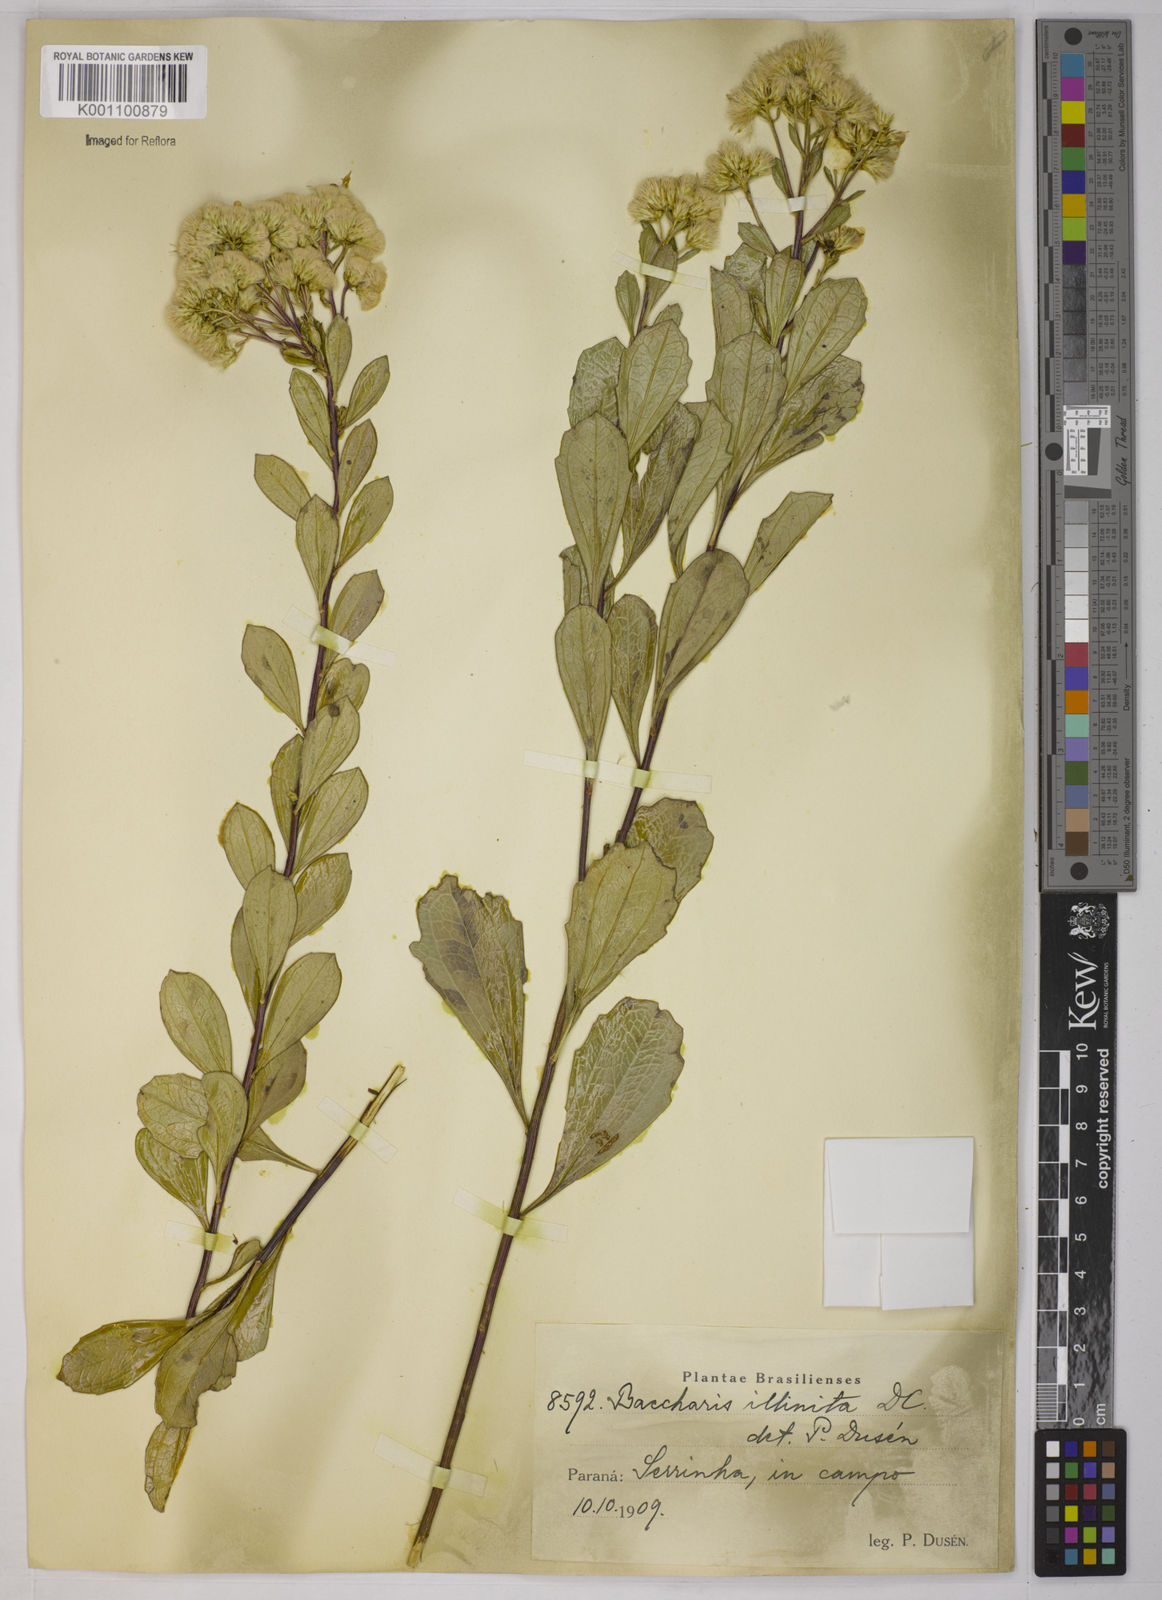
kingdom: Plantae
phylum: Tracheophyta
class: Magnoliopsida
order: Asterales
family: Asteraceae
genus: Baccharis
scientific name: Baccharis tridentata
